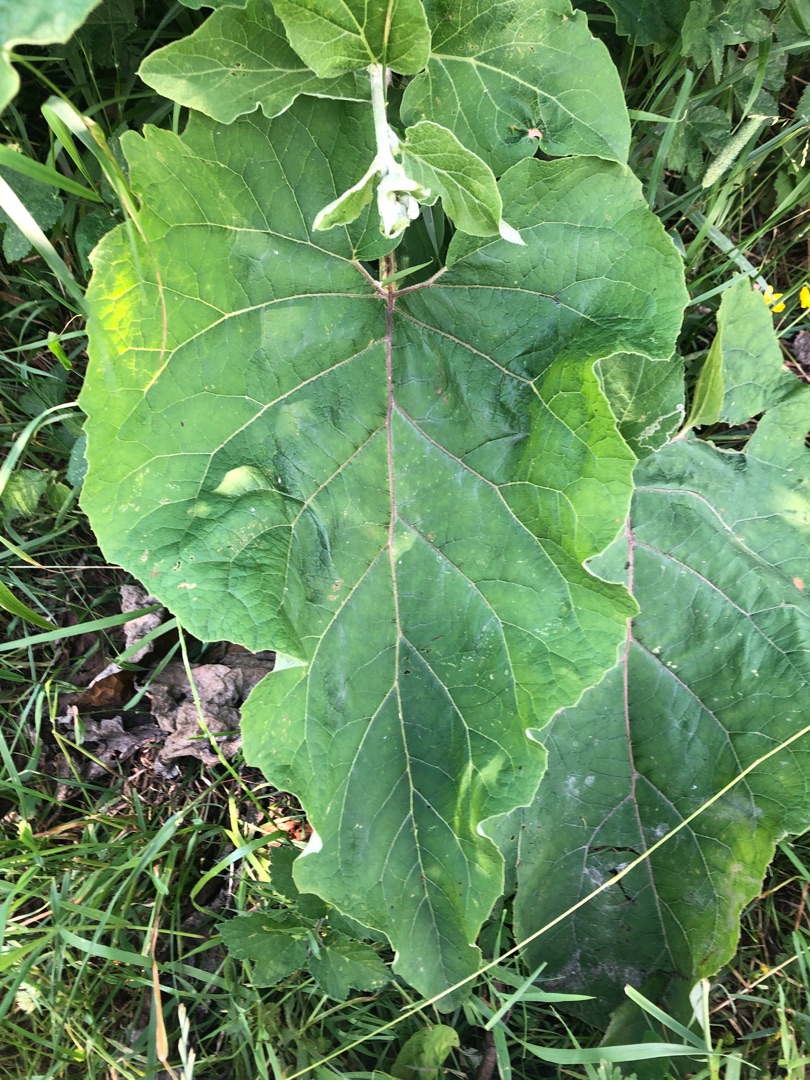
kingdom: Plantae
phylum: Tracheophyta
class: Magnoliopsida
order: Asterales
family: Asteraceae
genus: Arctium
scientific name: Arctium nemorosum
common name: Skov-burre
